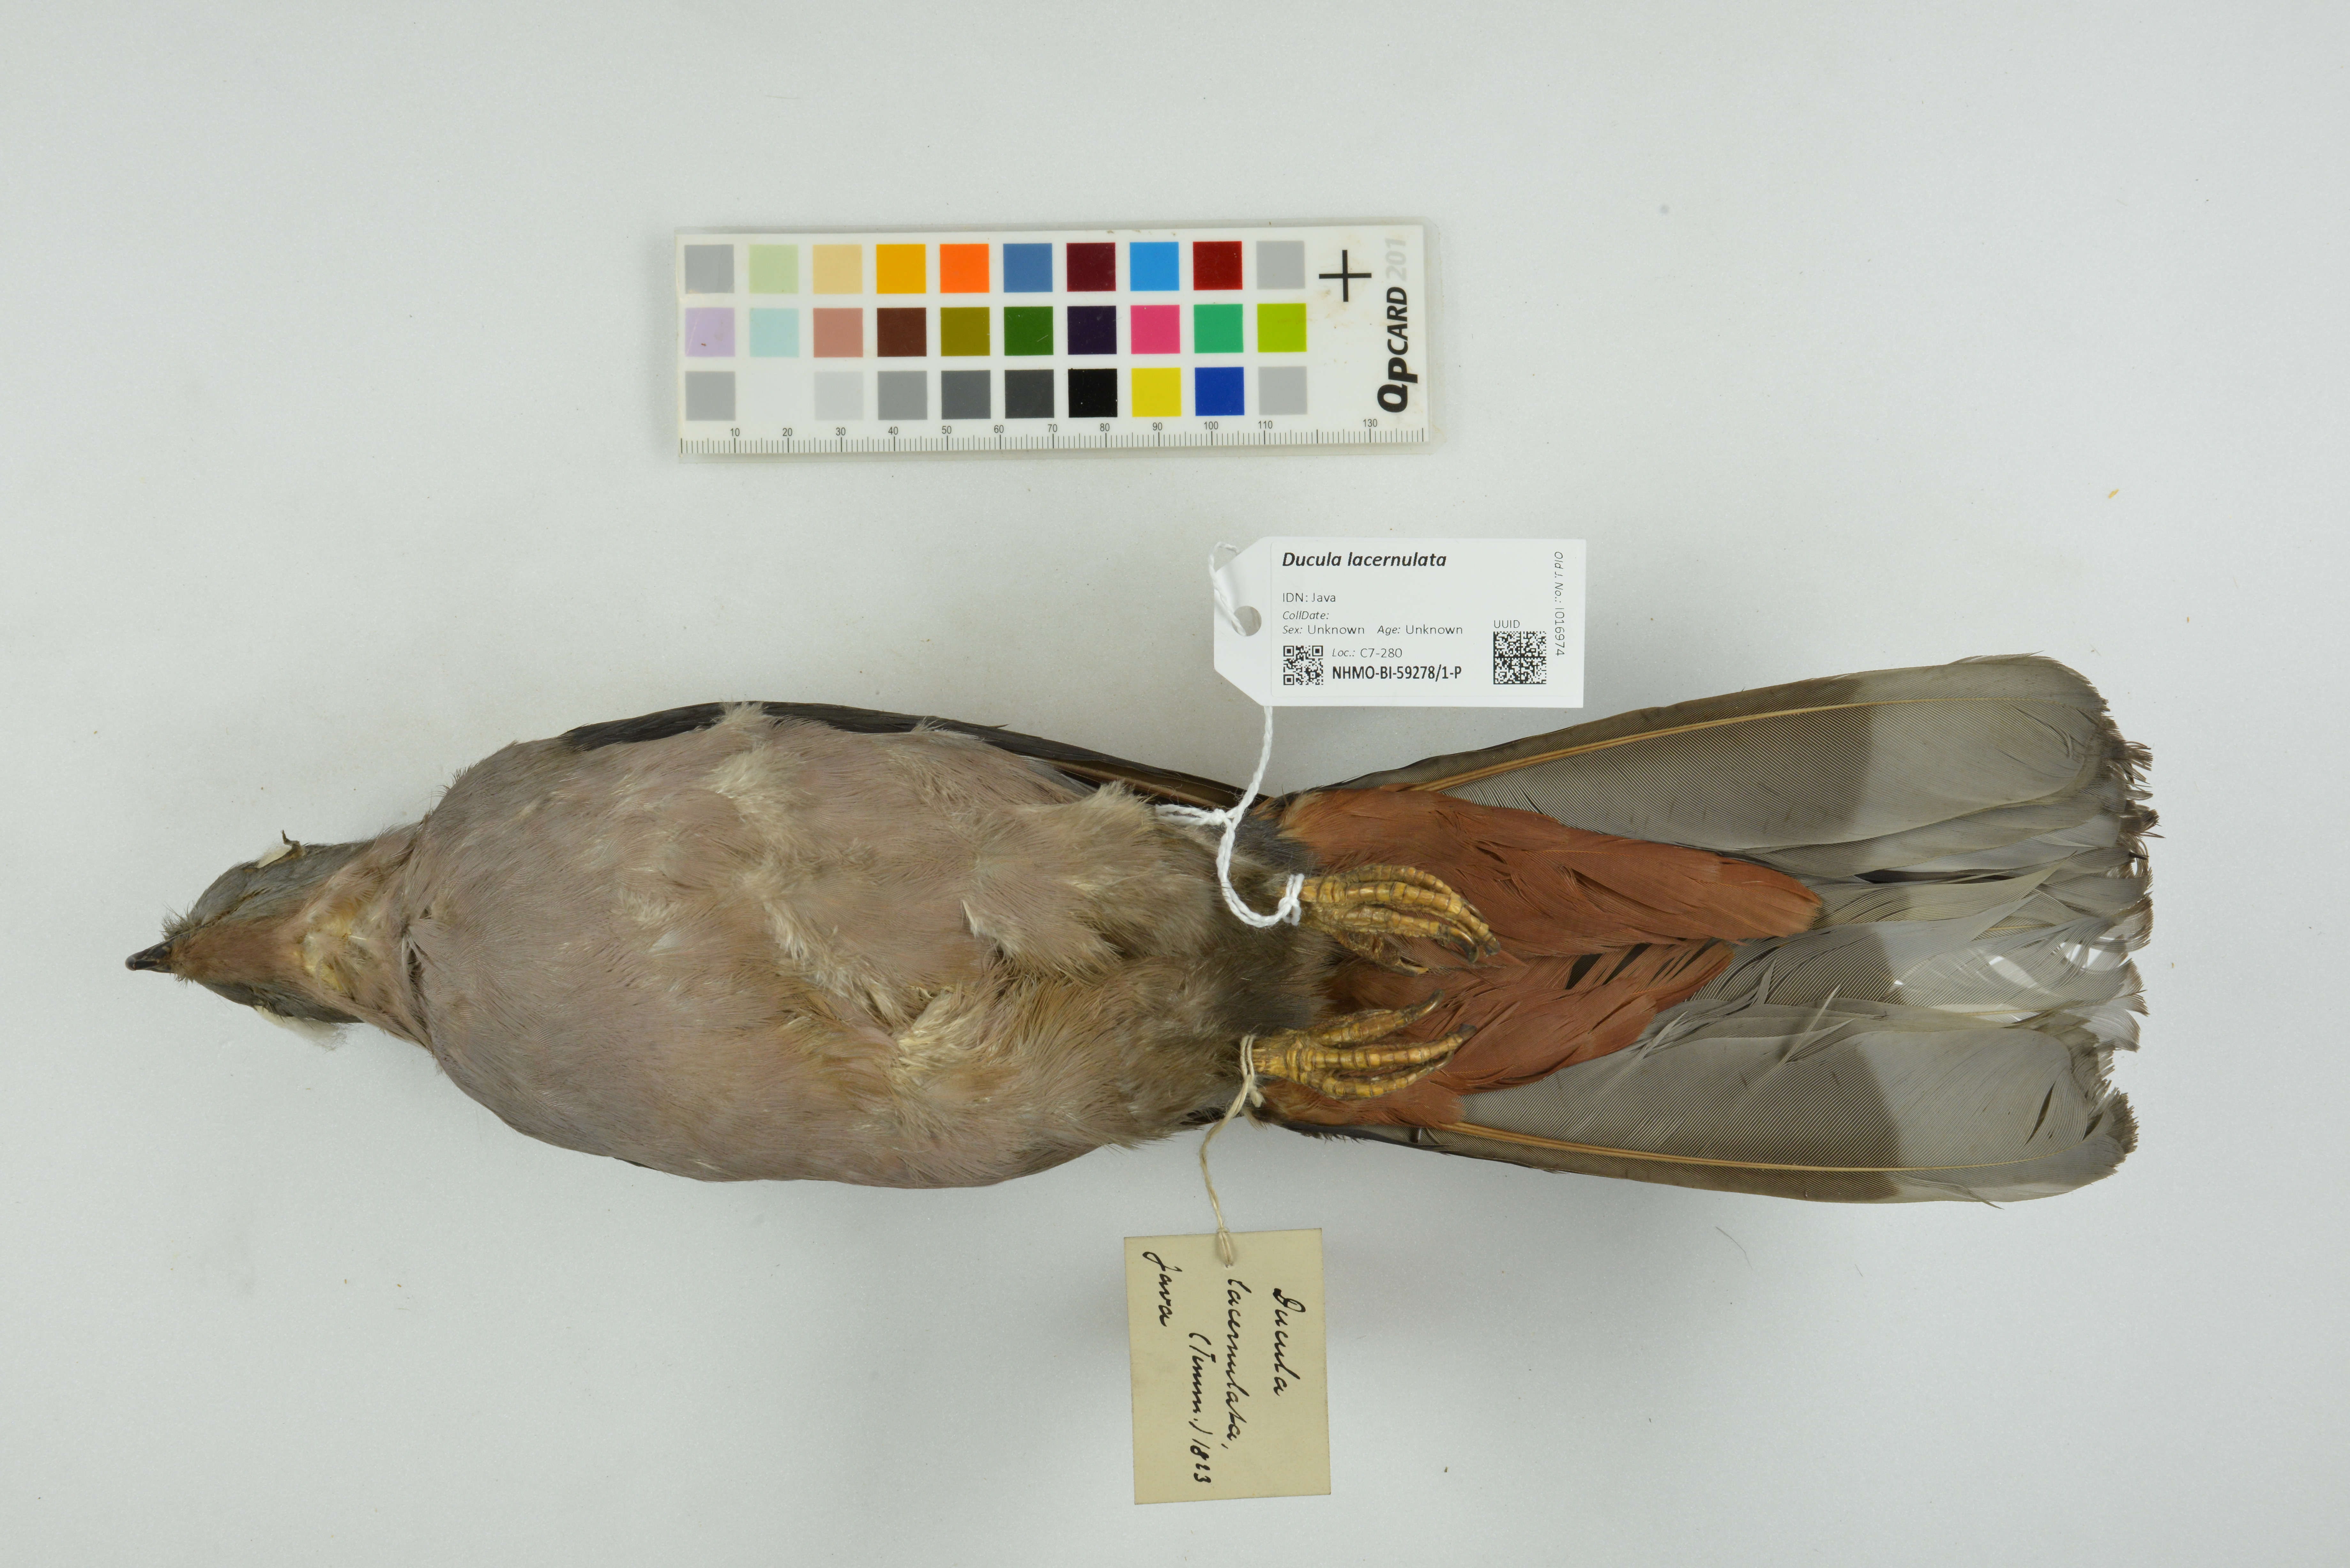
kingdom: Animalia
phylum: Chordata
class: Aves
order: Columbiformes
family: Columbidae
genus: Ducula
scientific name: Ducula lacernulata
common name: Dark-backed imperial pigeon
